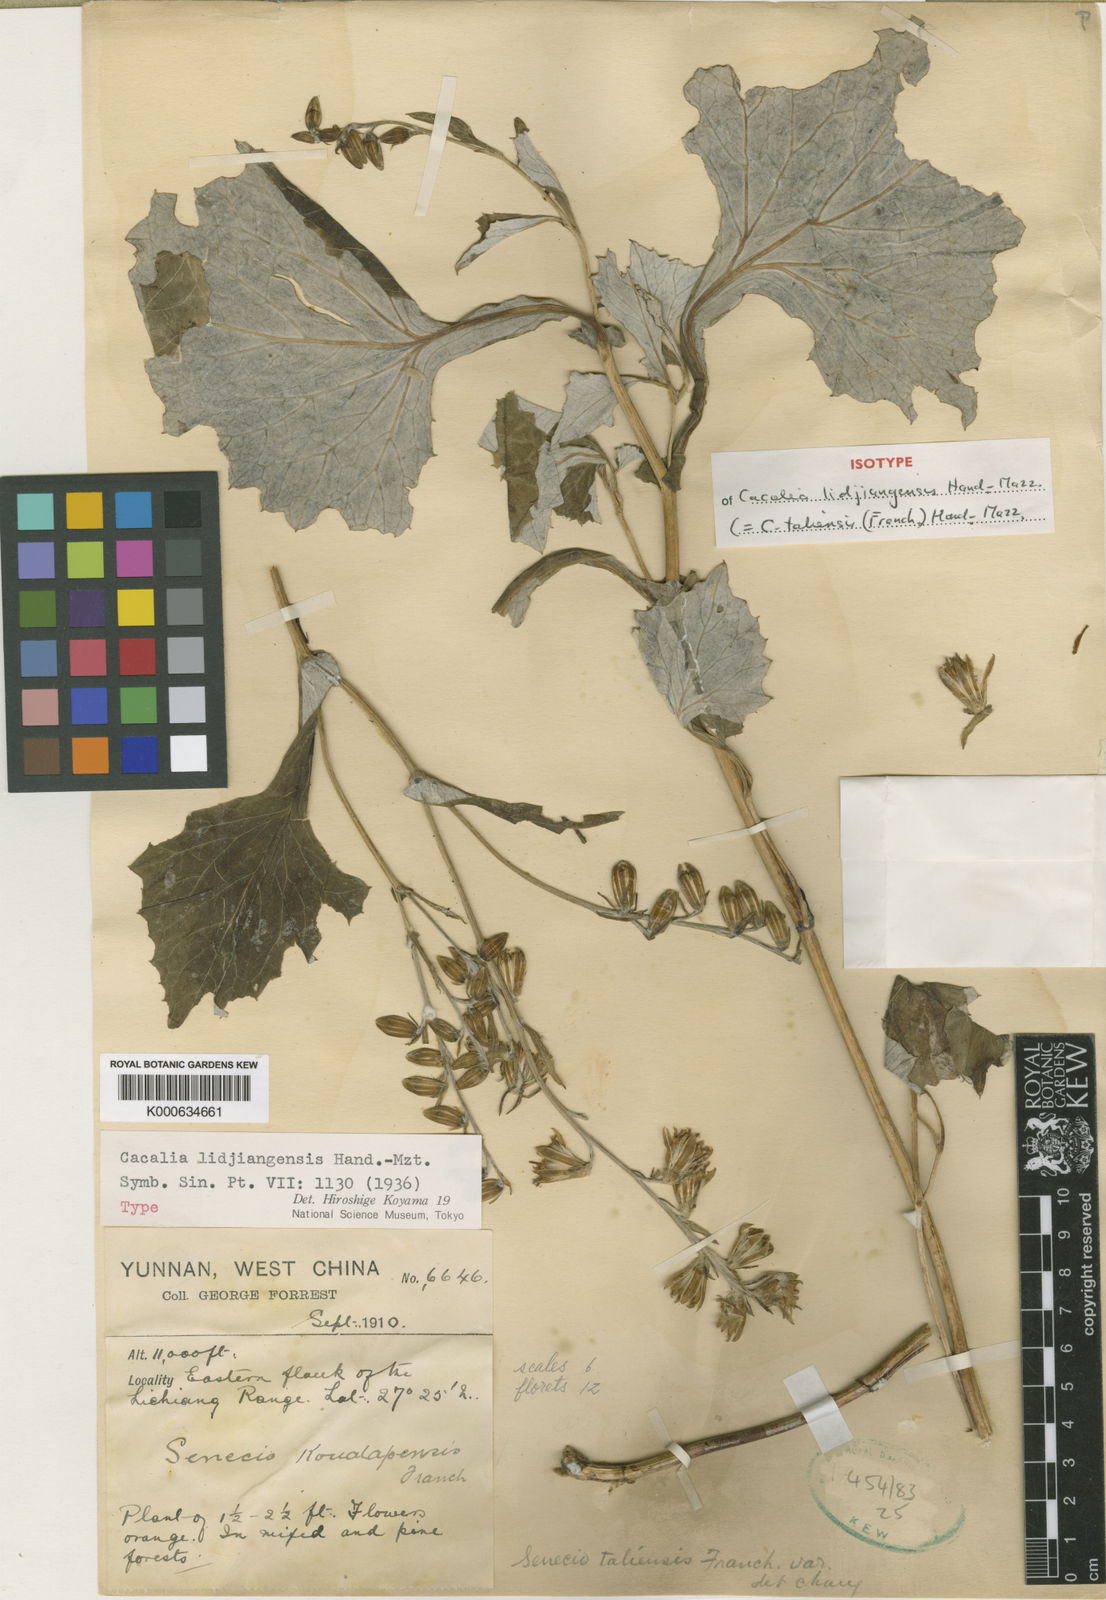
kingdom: Plantae
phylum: Tracheophyta
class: Magnoliopsida
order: Asterales
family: Asteraceae
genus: Parasenecio
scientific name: Parasenecio lidjiangensis
